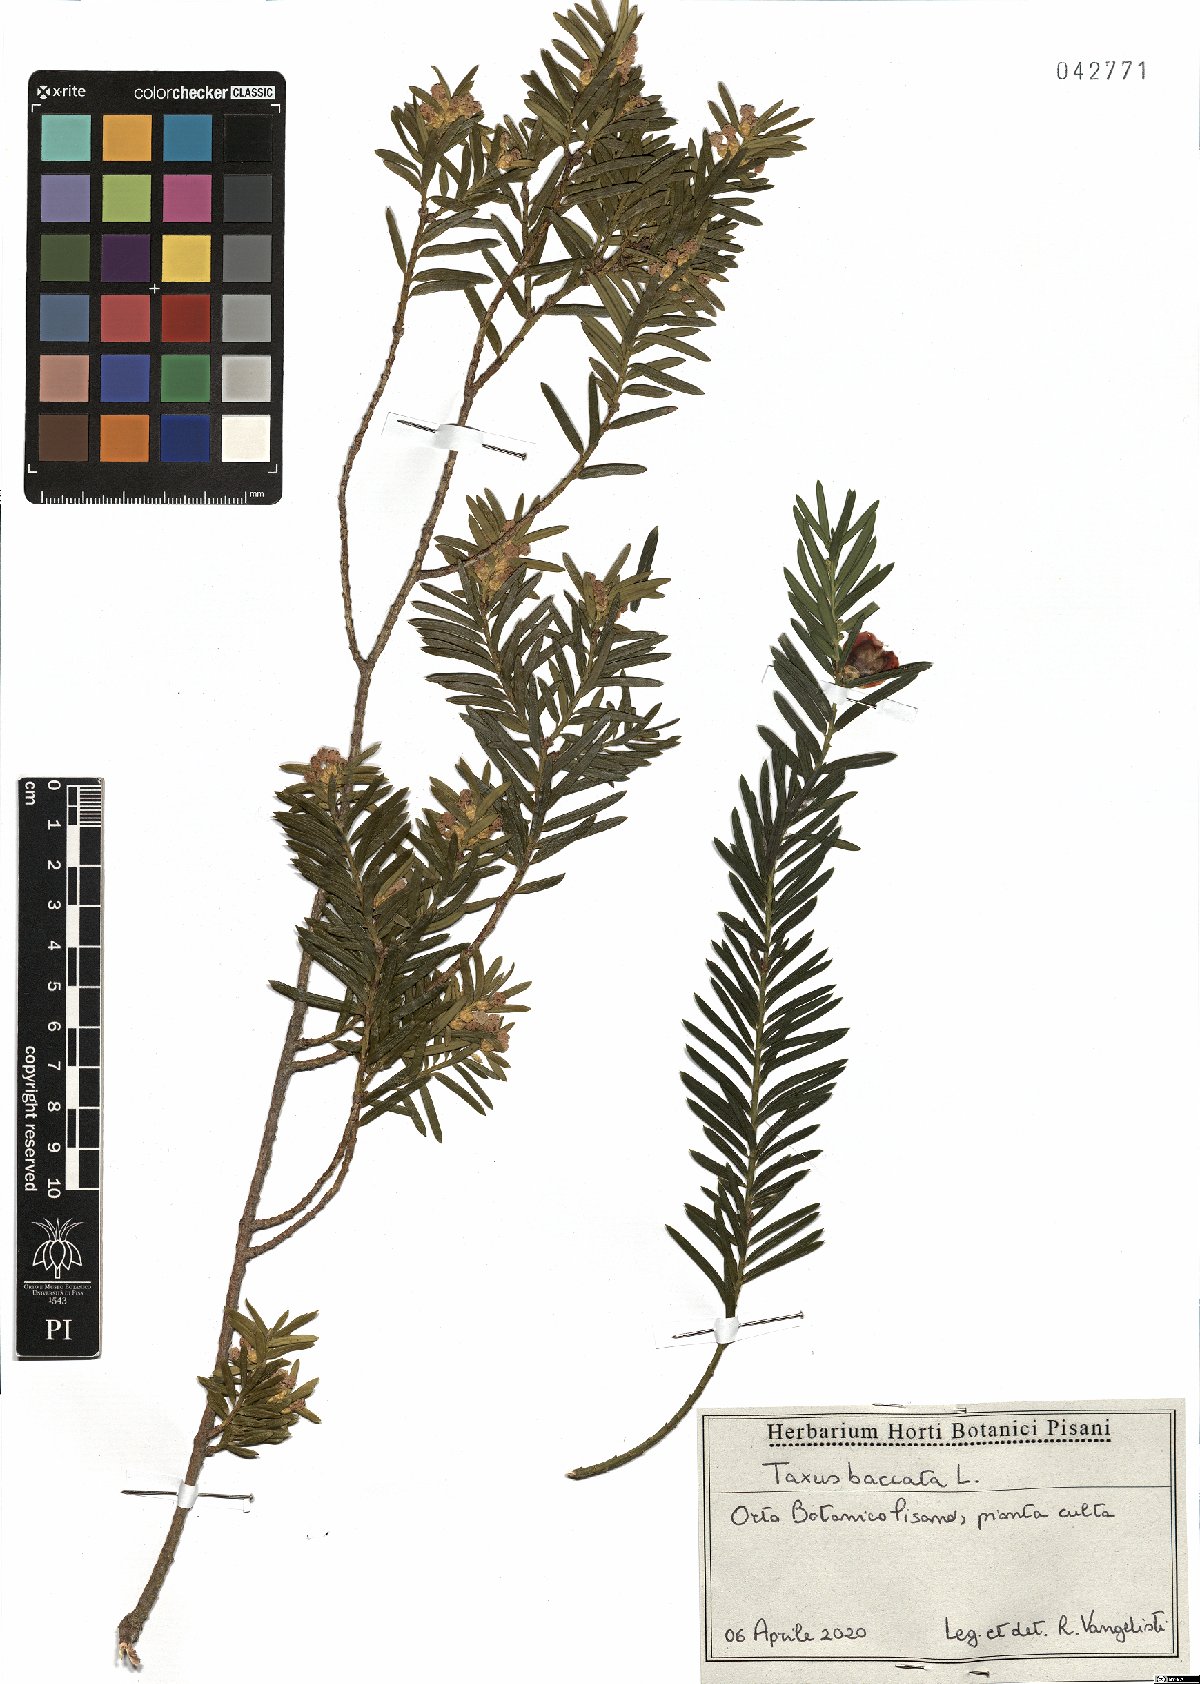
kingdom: Plantae
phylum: Tracheophyta
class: Pinopsida
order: Pinales
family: Taxaceae
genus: Taxus
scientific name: Taxus baccata
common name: Yew
